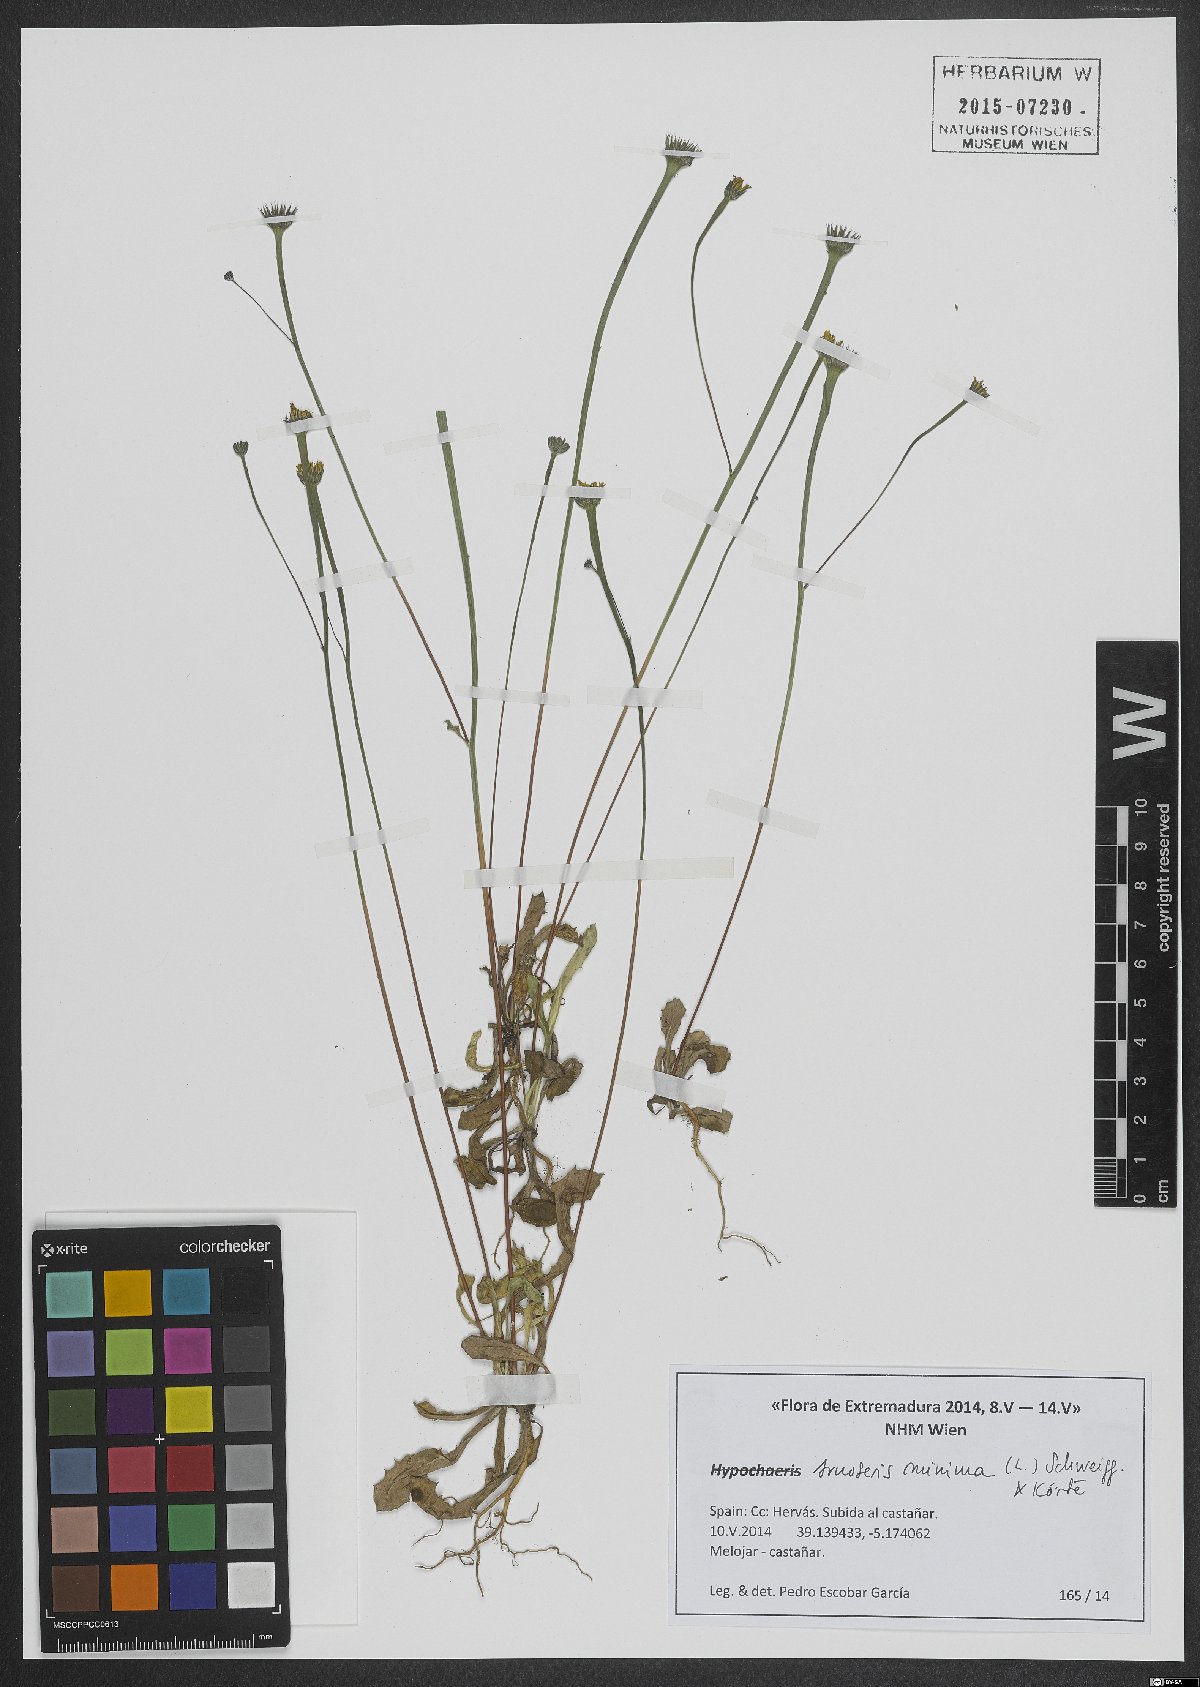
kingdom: Plantae
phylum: Tracheophyta
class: Magnoliopsida
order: Asterales
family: Asteraceae
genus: Arnoseris
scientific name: Arnoseris minima
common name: Lamb's succory
